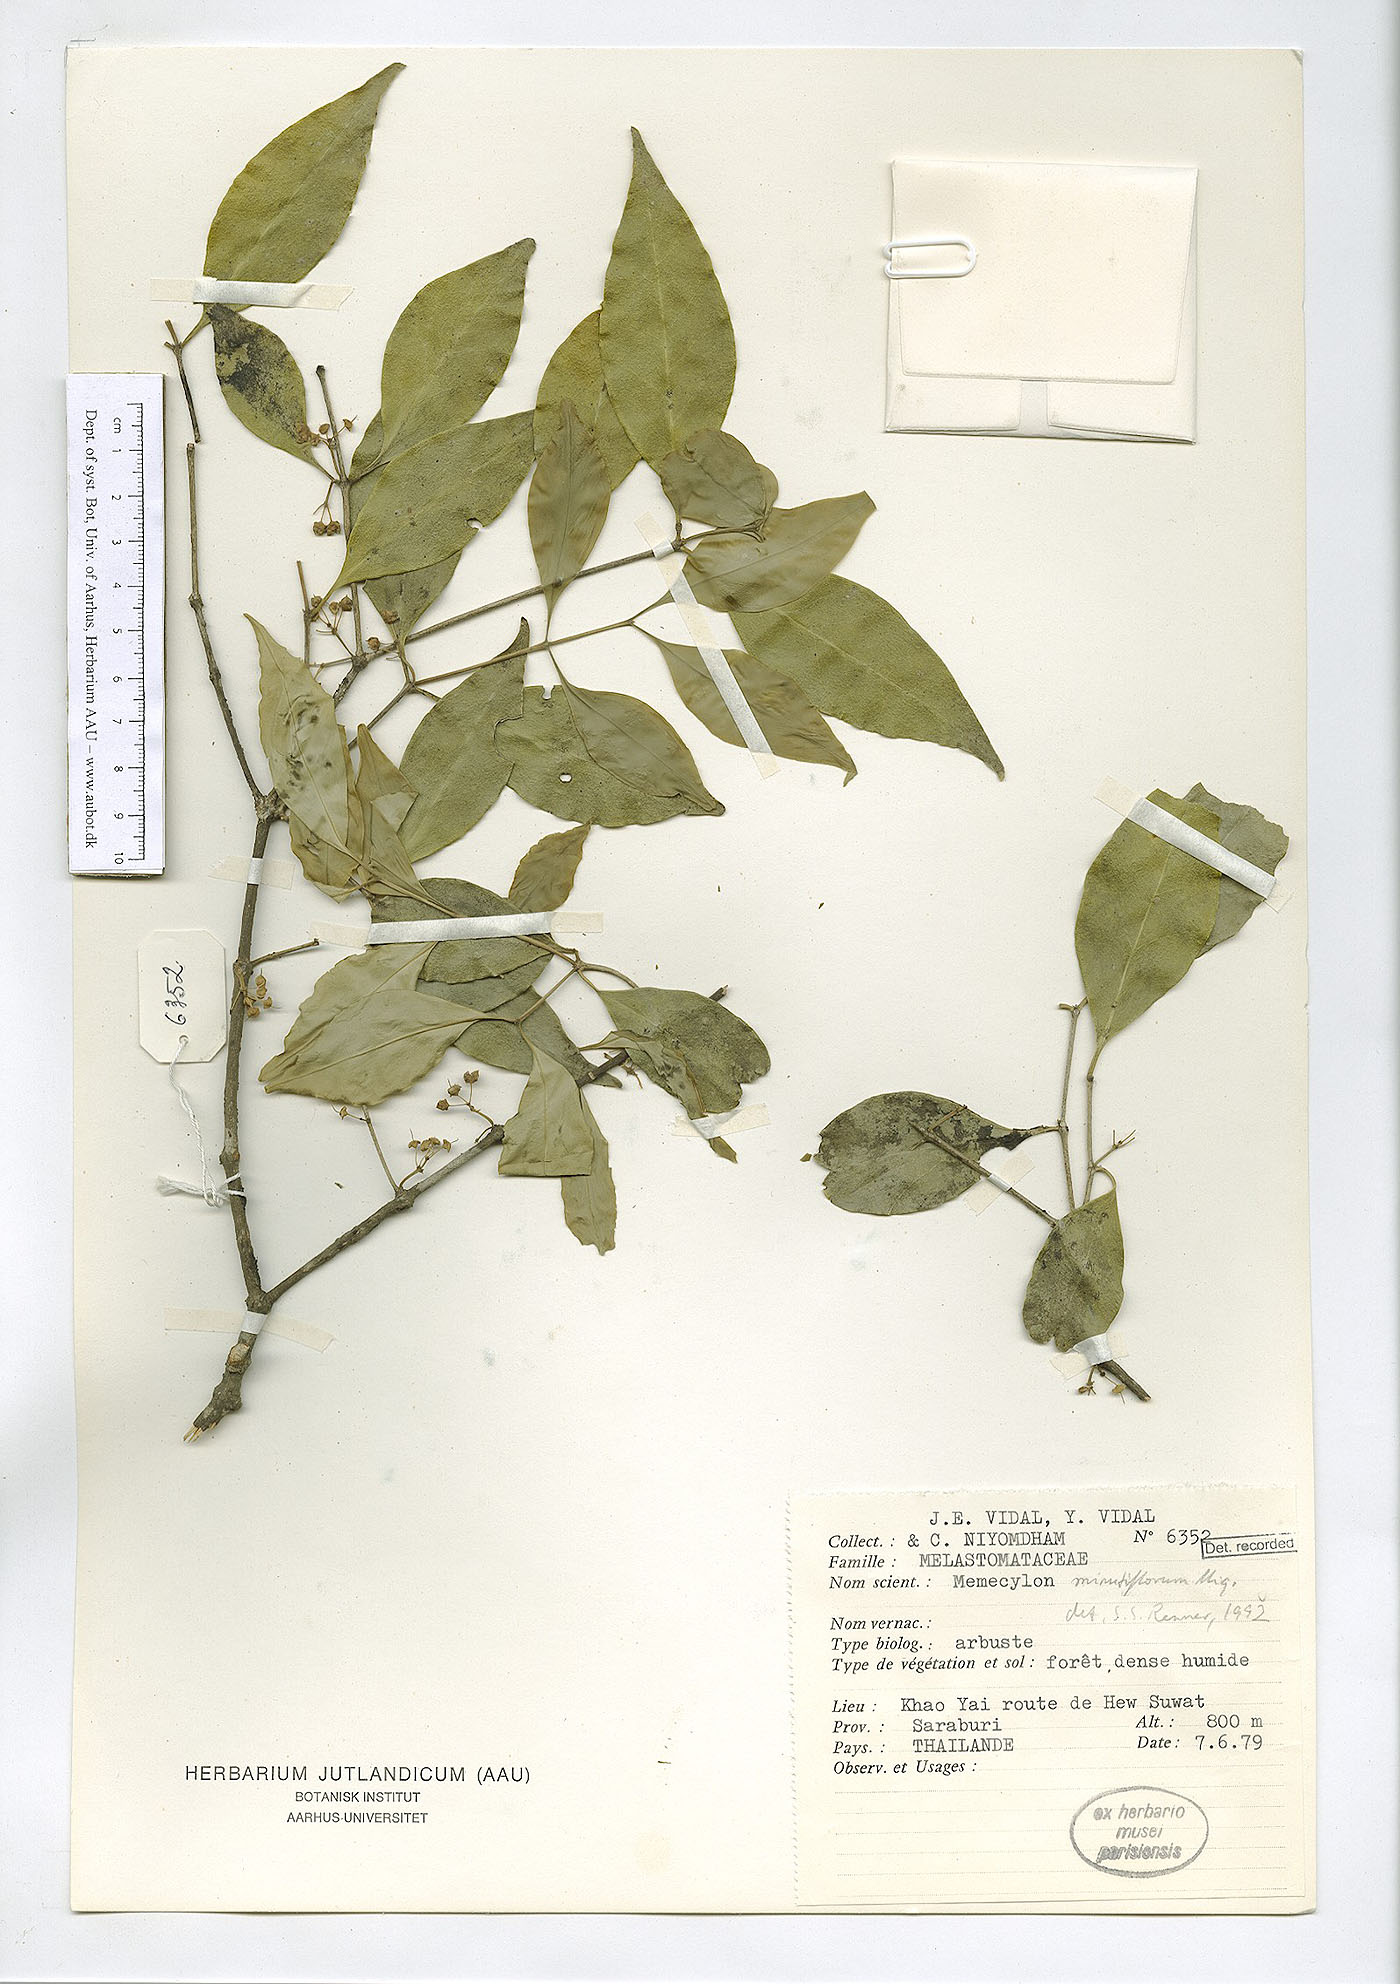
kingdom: Plantae
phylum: Tracheophyta
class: Magnoliopsida
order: Myrtales
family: Melastomataceae
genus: Memecylon
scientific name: Memecylon lanceolatum
